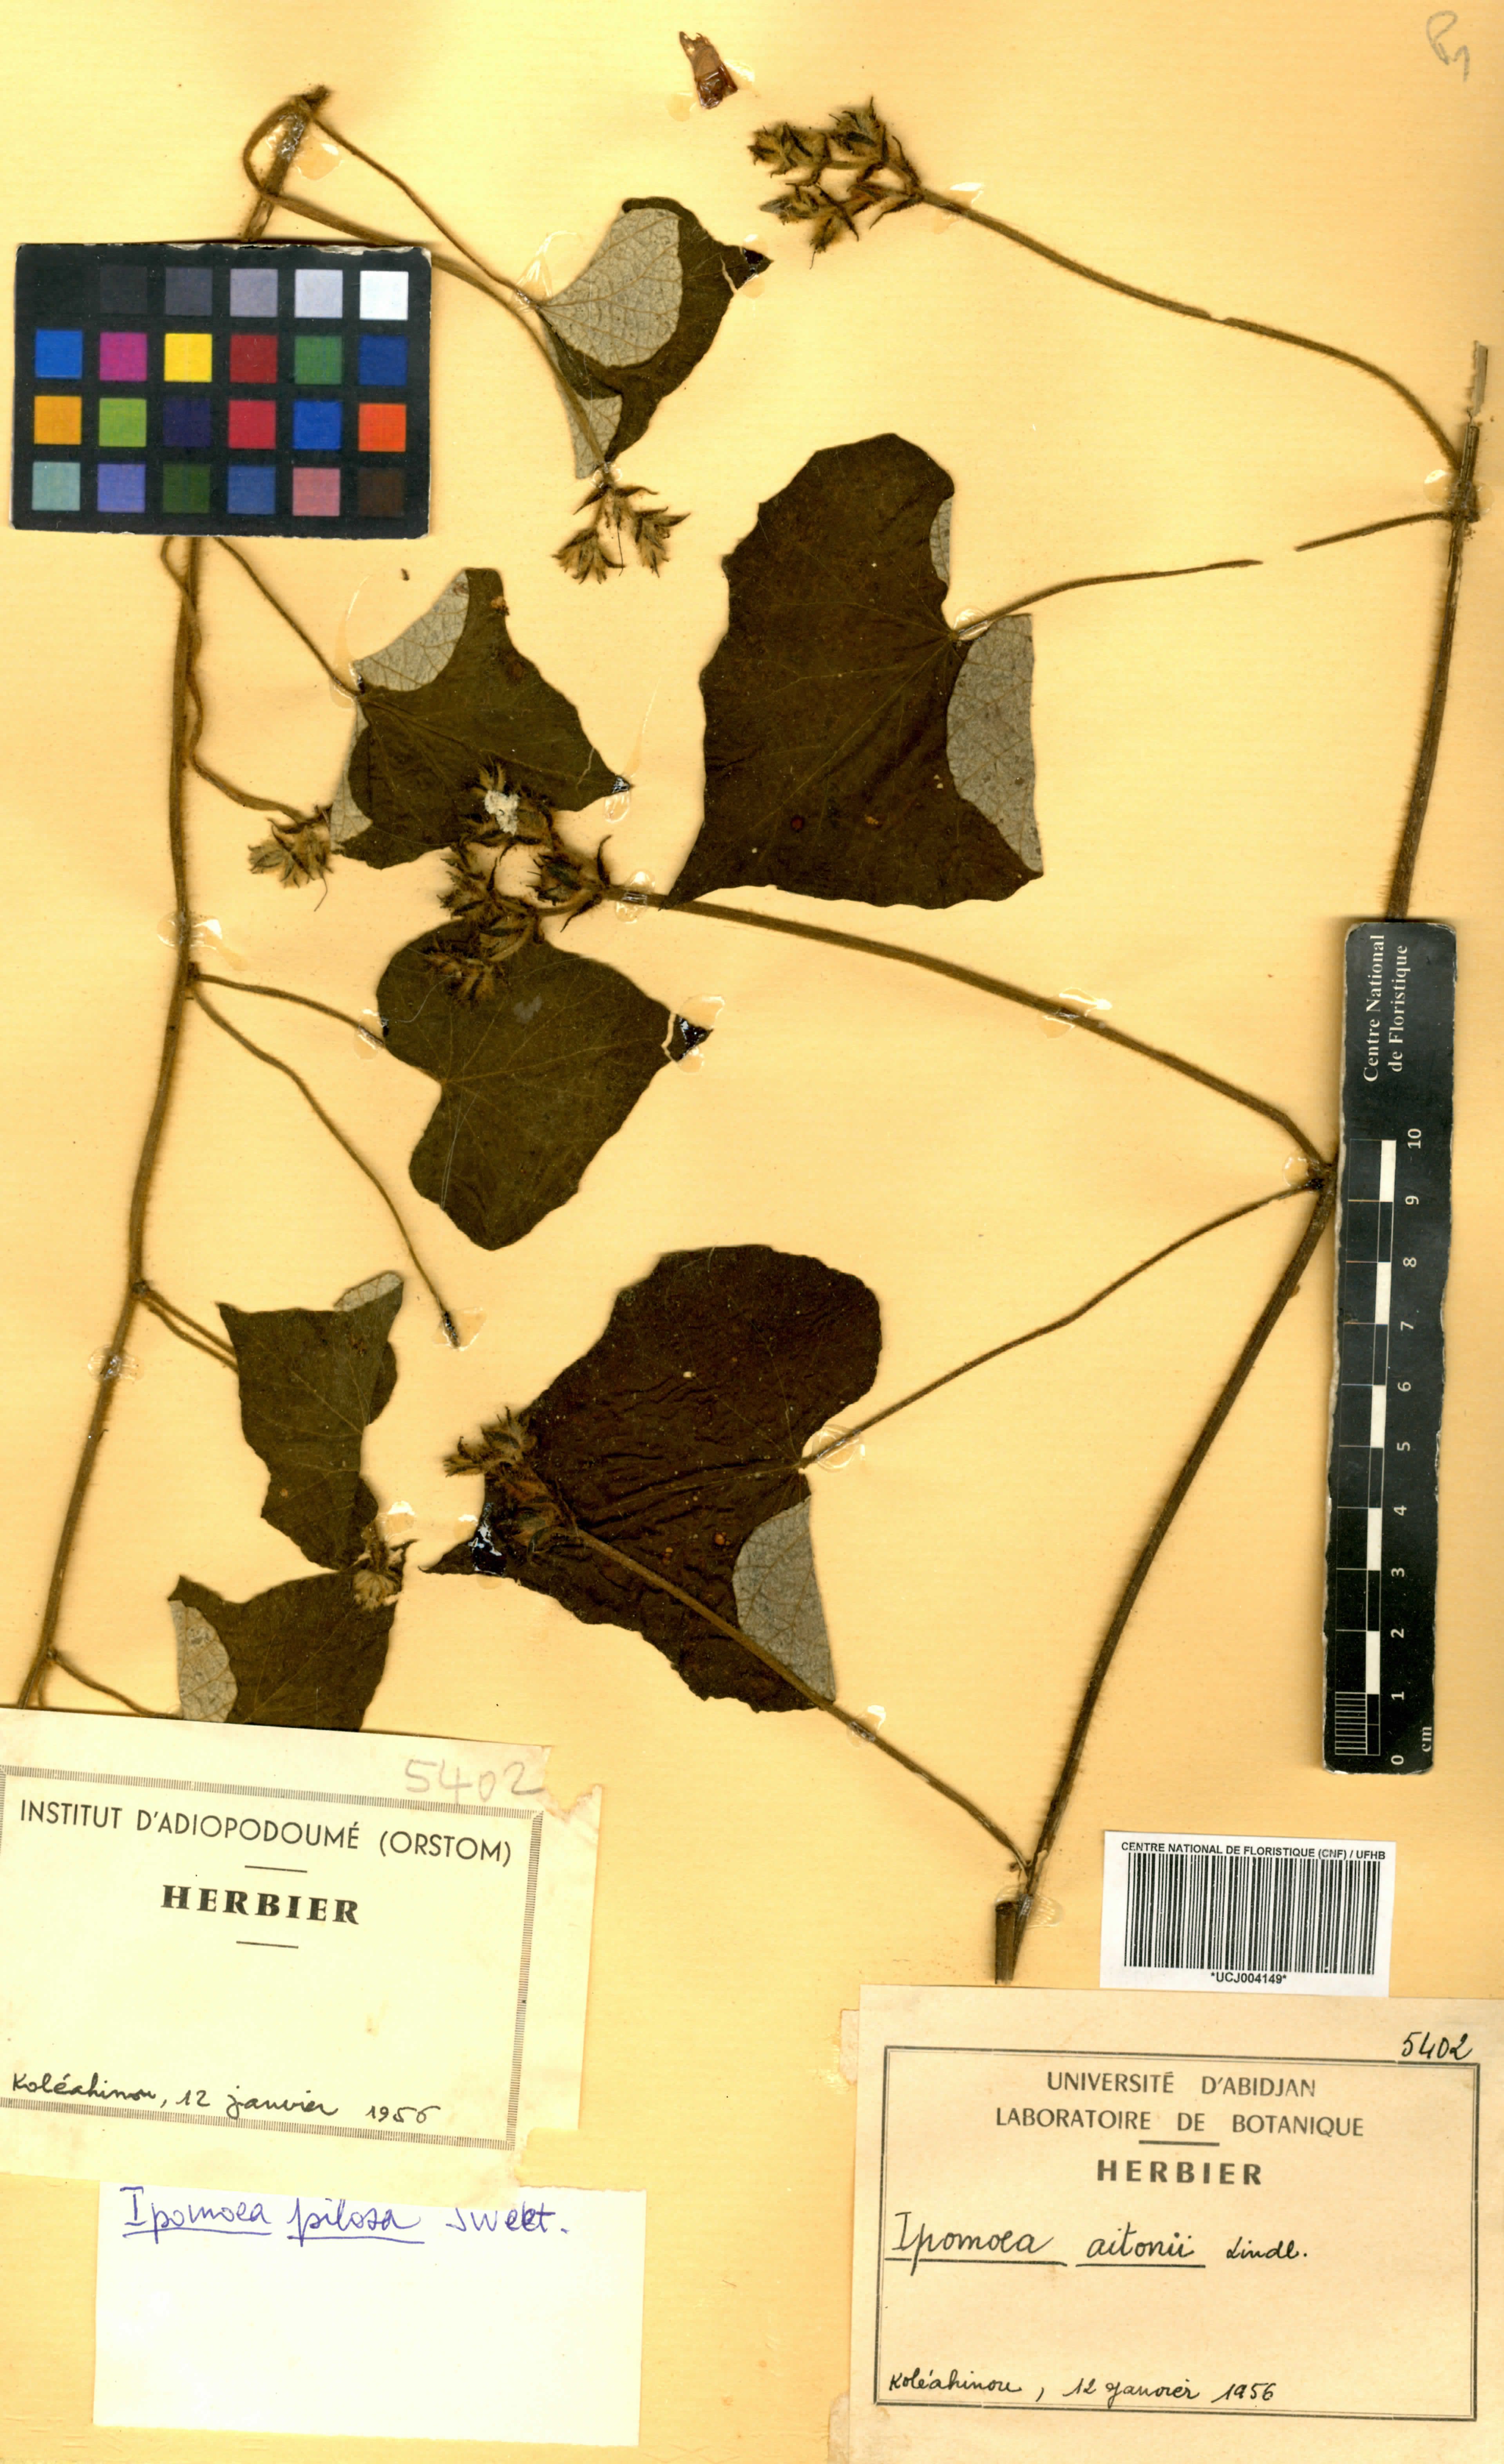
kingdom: Plantae
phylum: Tracheophyta
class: Magnoliopsida
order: Solanales
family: Convolvulaceae
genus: Ipomoea
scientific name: Ipomoea arachnosperma
